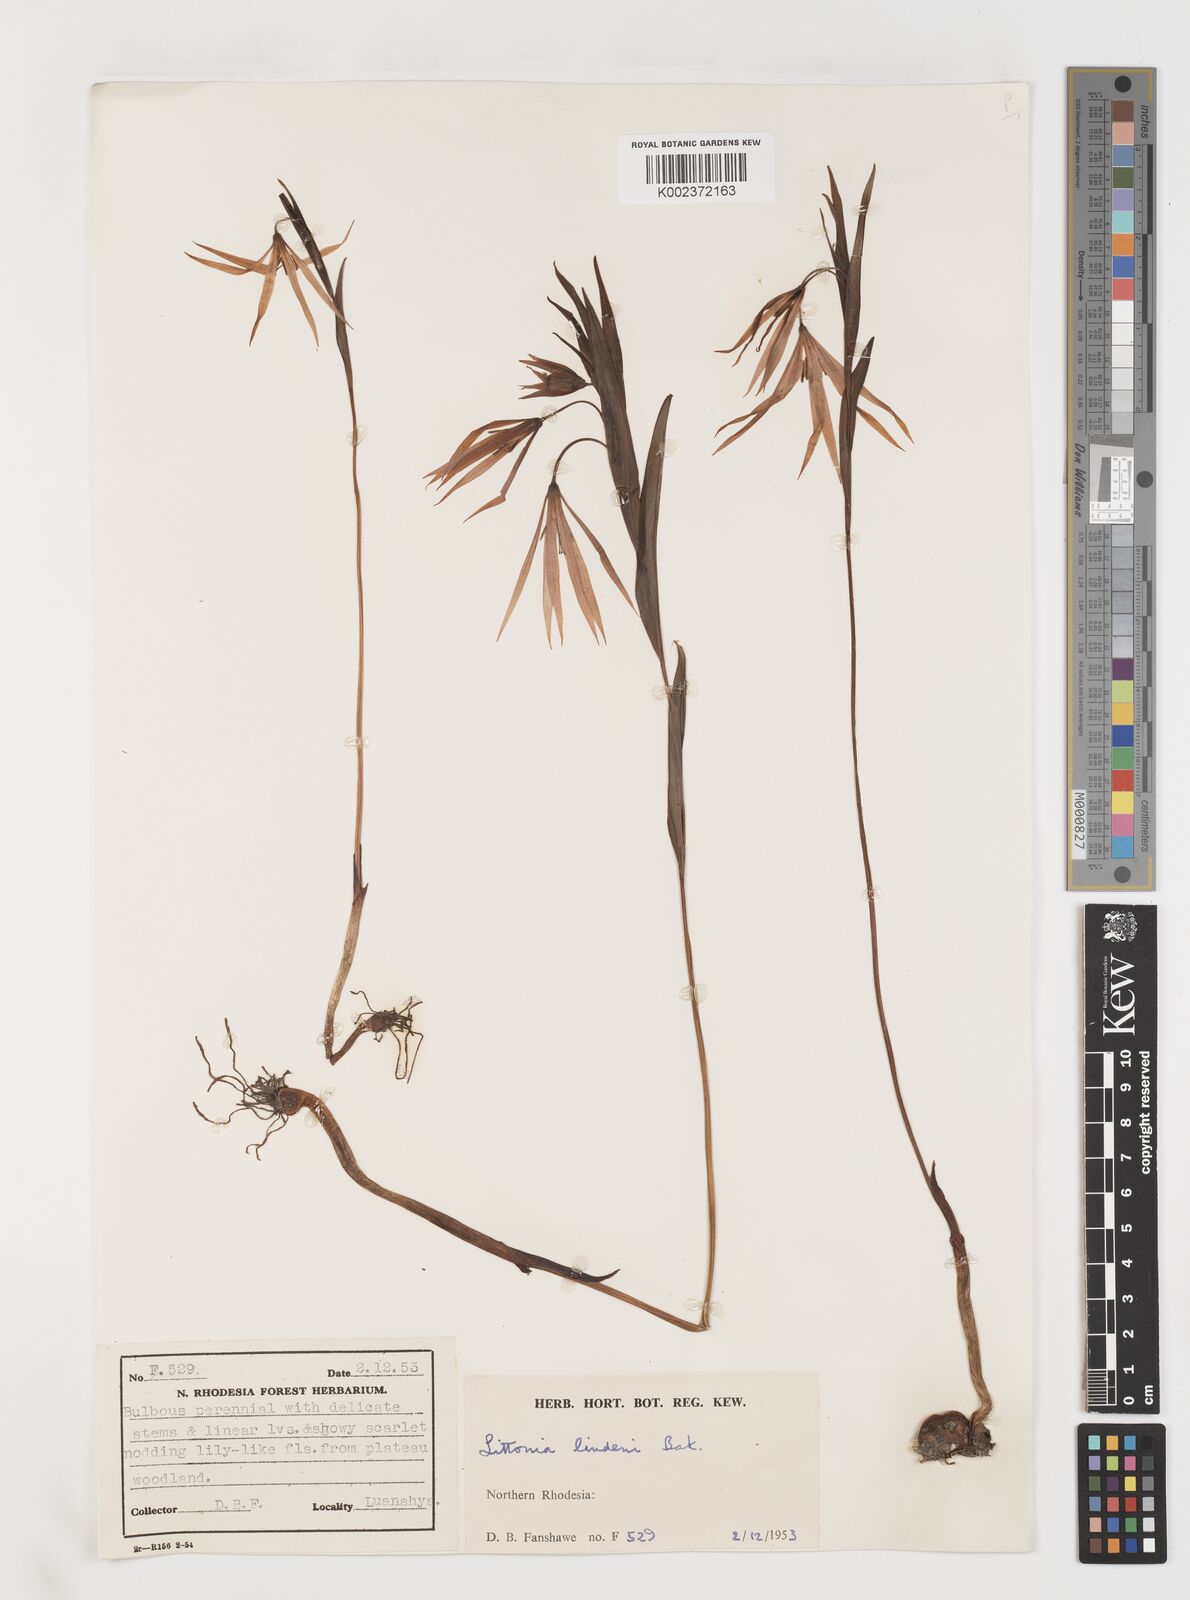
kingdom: Plantae
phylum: Tracheophyta
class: Liliopsida
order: Liliales
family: Colchicaceae
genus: Gloriosa
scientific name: Gloriosa lindenii
